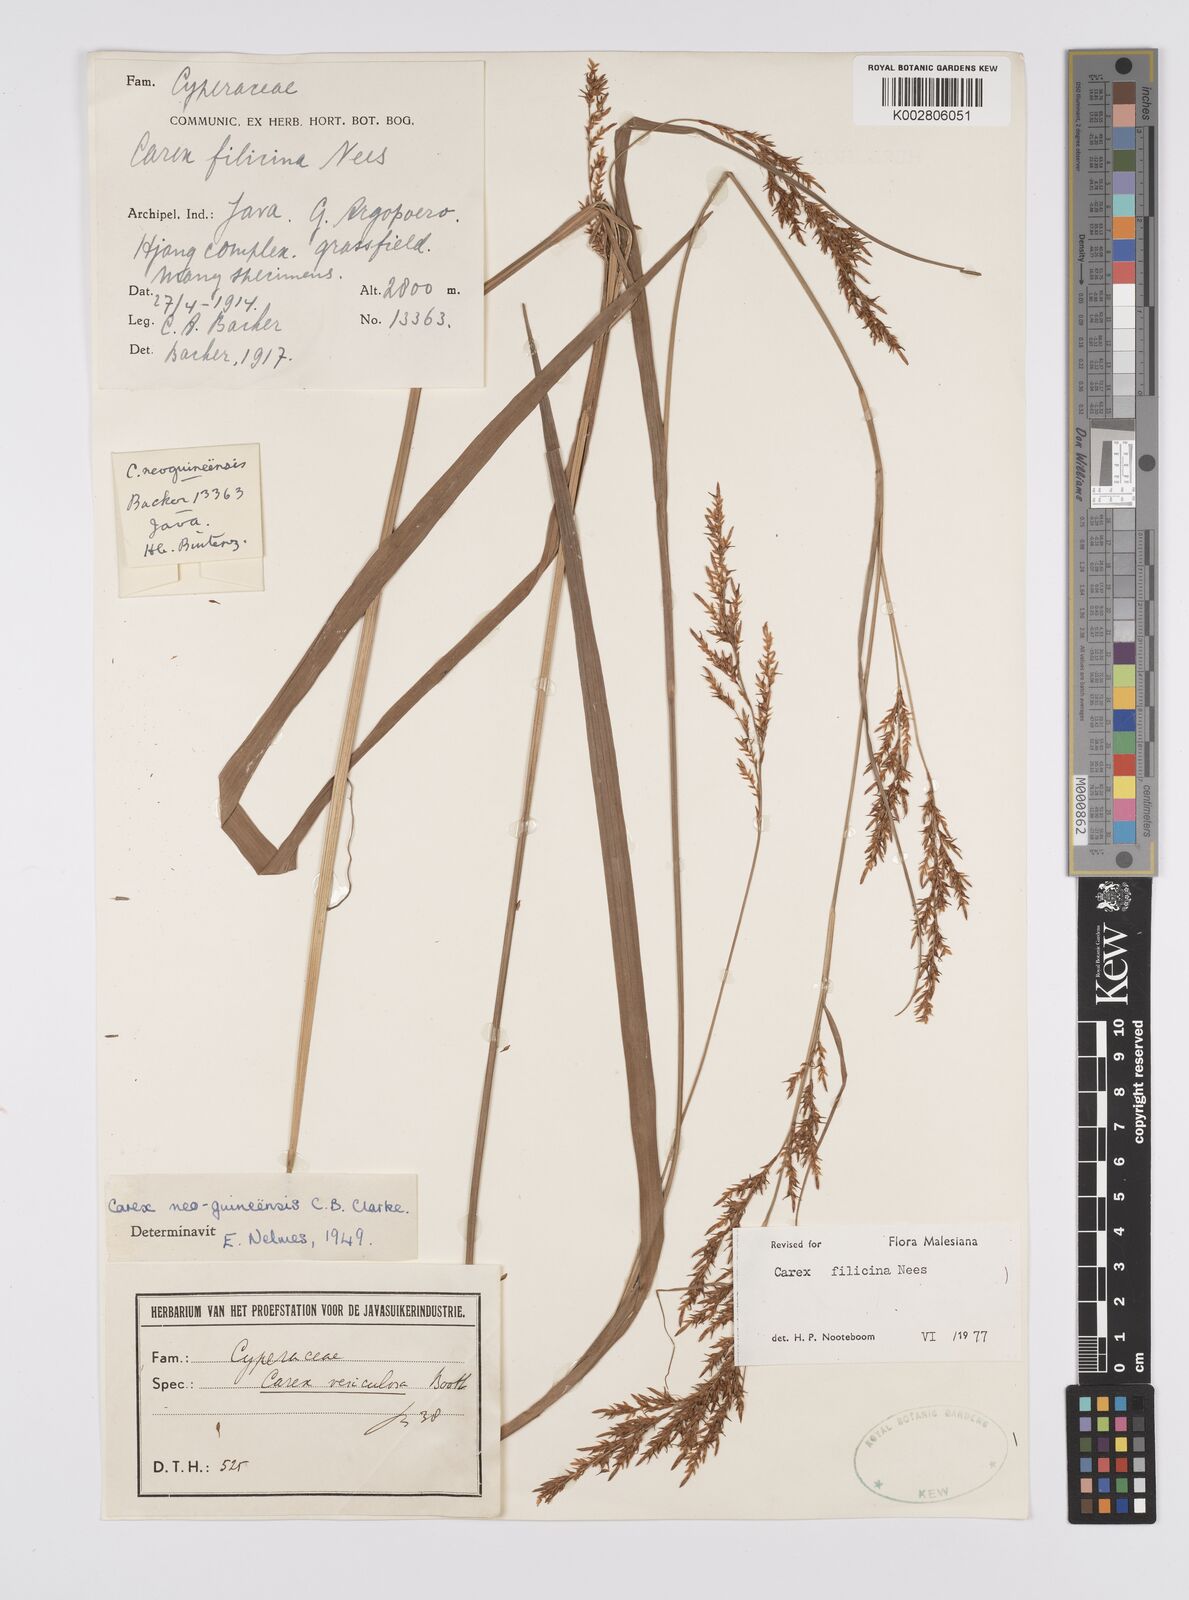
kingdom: Plantae
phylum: Tracheophyta
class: Liliopsida
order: Poales
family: Cyperaceae
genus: Carex
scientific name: Carex filicina
